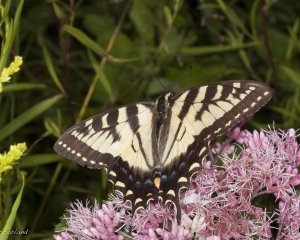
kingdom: Animalia
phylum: Arthropoda
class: Insecta
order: Lepidoptera
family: Papilionidae
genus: Pterourus
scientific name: Pterourus
